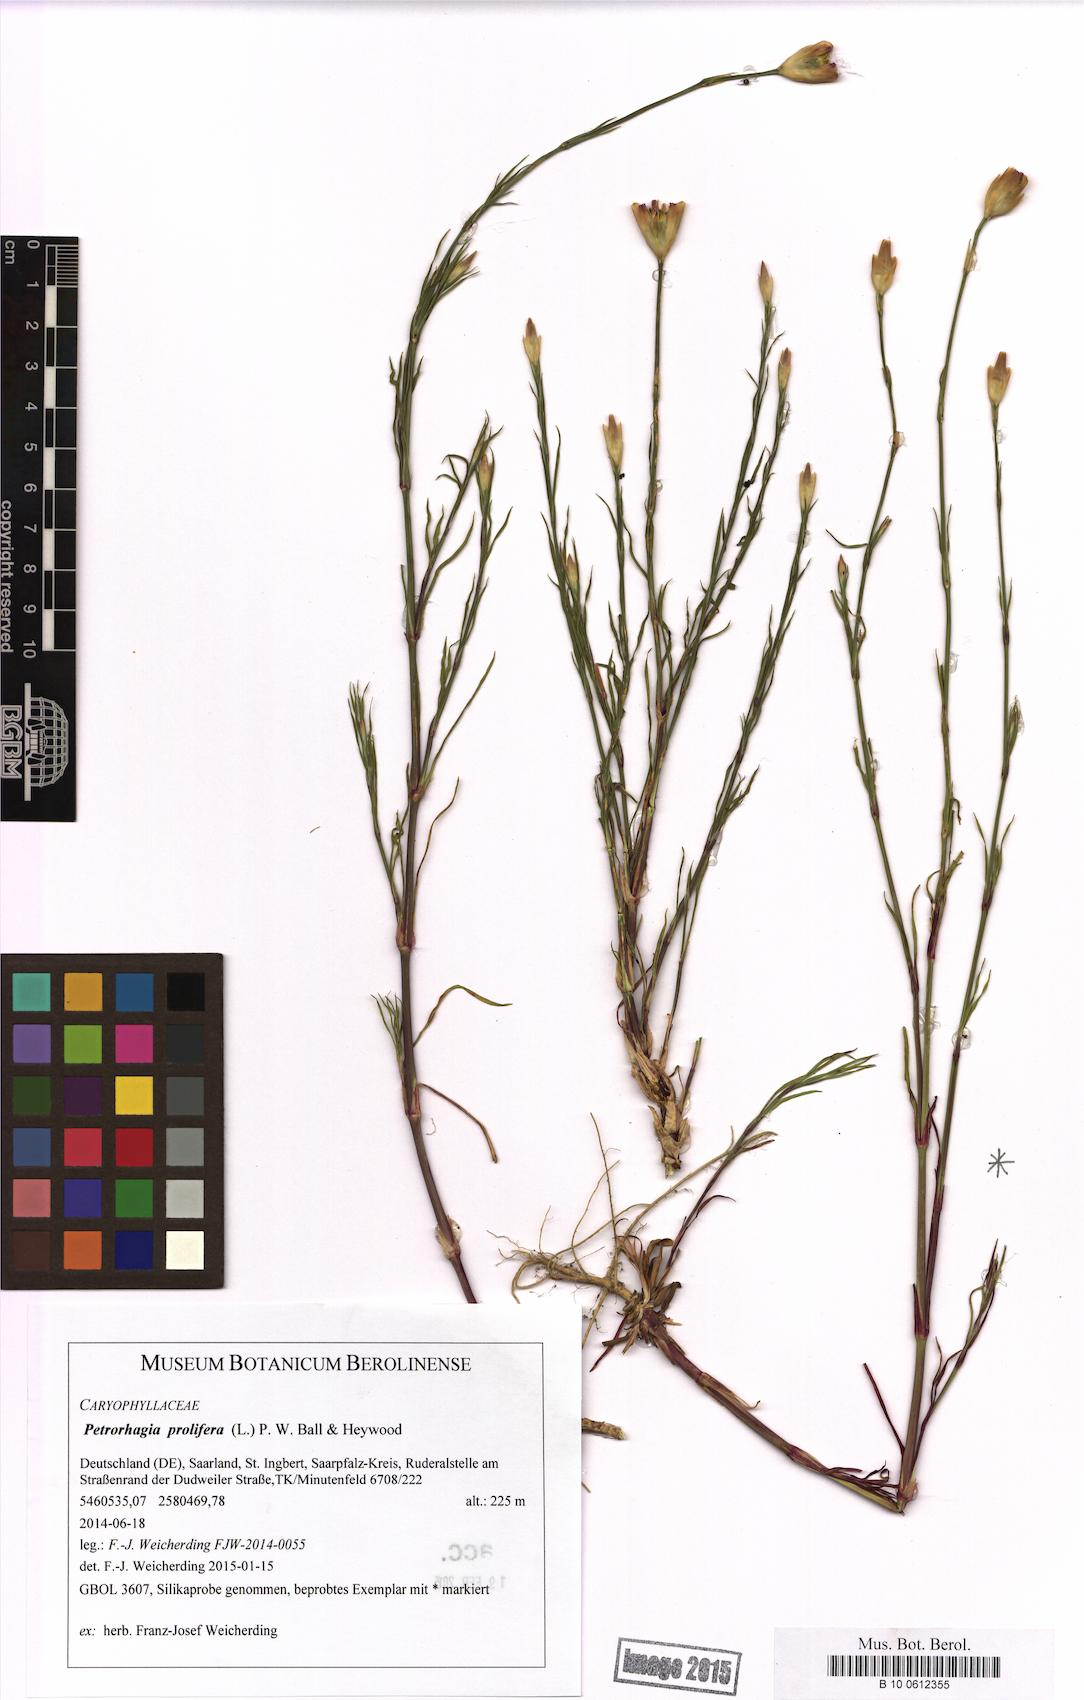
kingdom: Plantae
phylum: Tracheophyta
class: Magnoliopsida
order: Caryophyllales
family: Caryophyllaceae
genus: Petrorhagia
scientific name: Petrorhagia prolifera
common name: Proliferous pink
